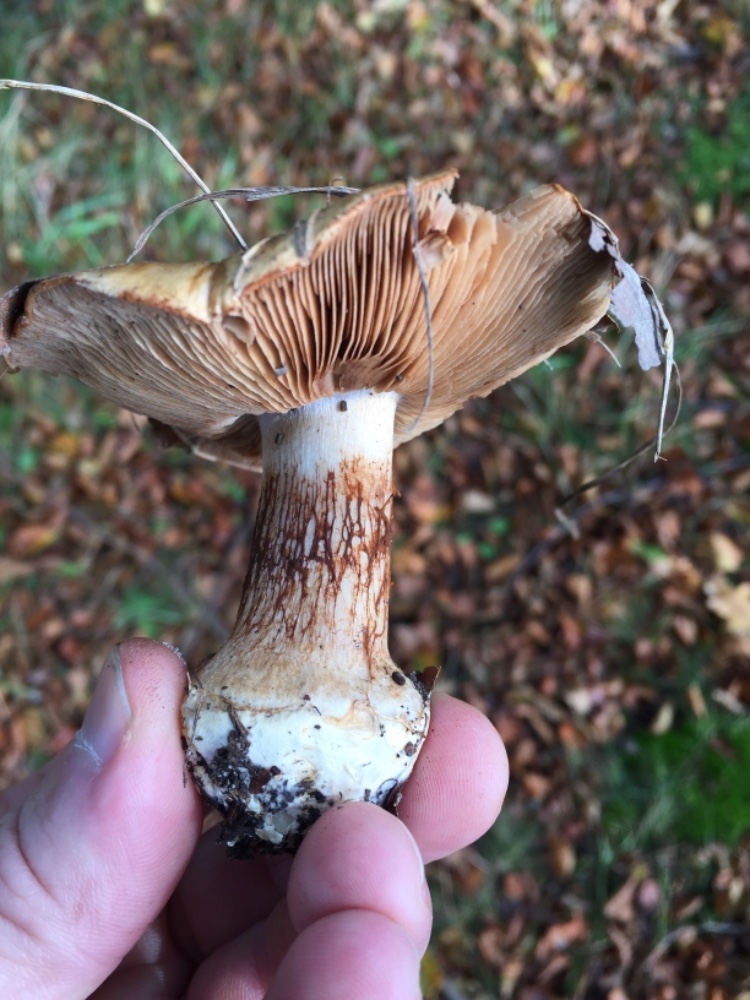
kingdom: Fungi
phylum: Basidiomycota
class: Agaricomycetes
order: Agaricales
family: Cortinariaceae
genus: Cortinarius
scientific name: Cortinarius anserinus
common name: bøge-slørhat
